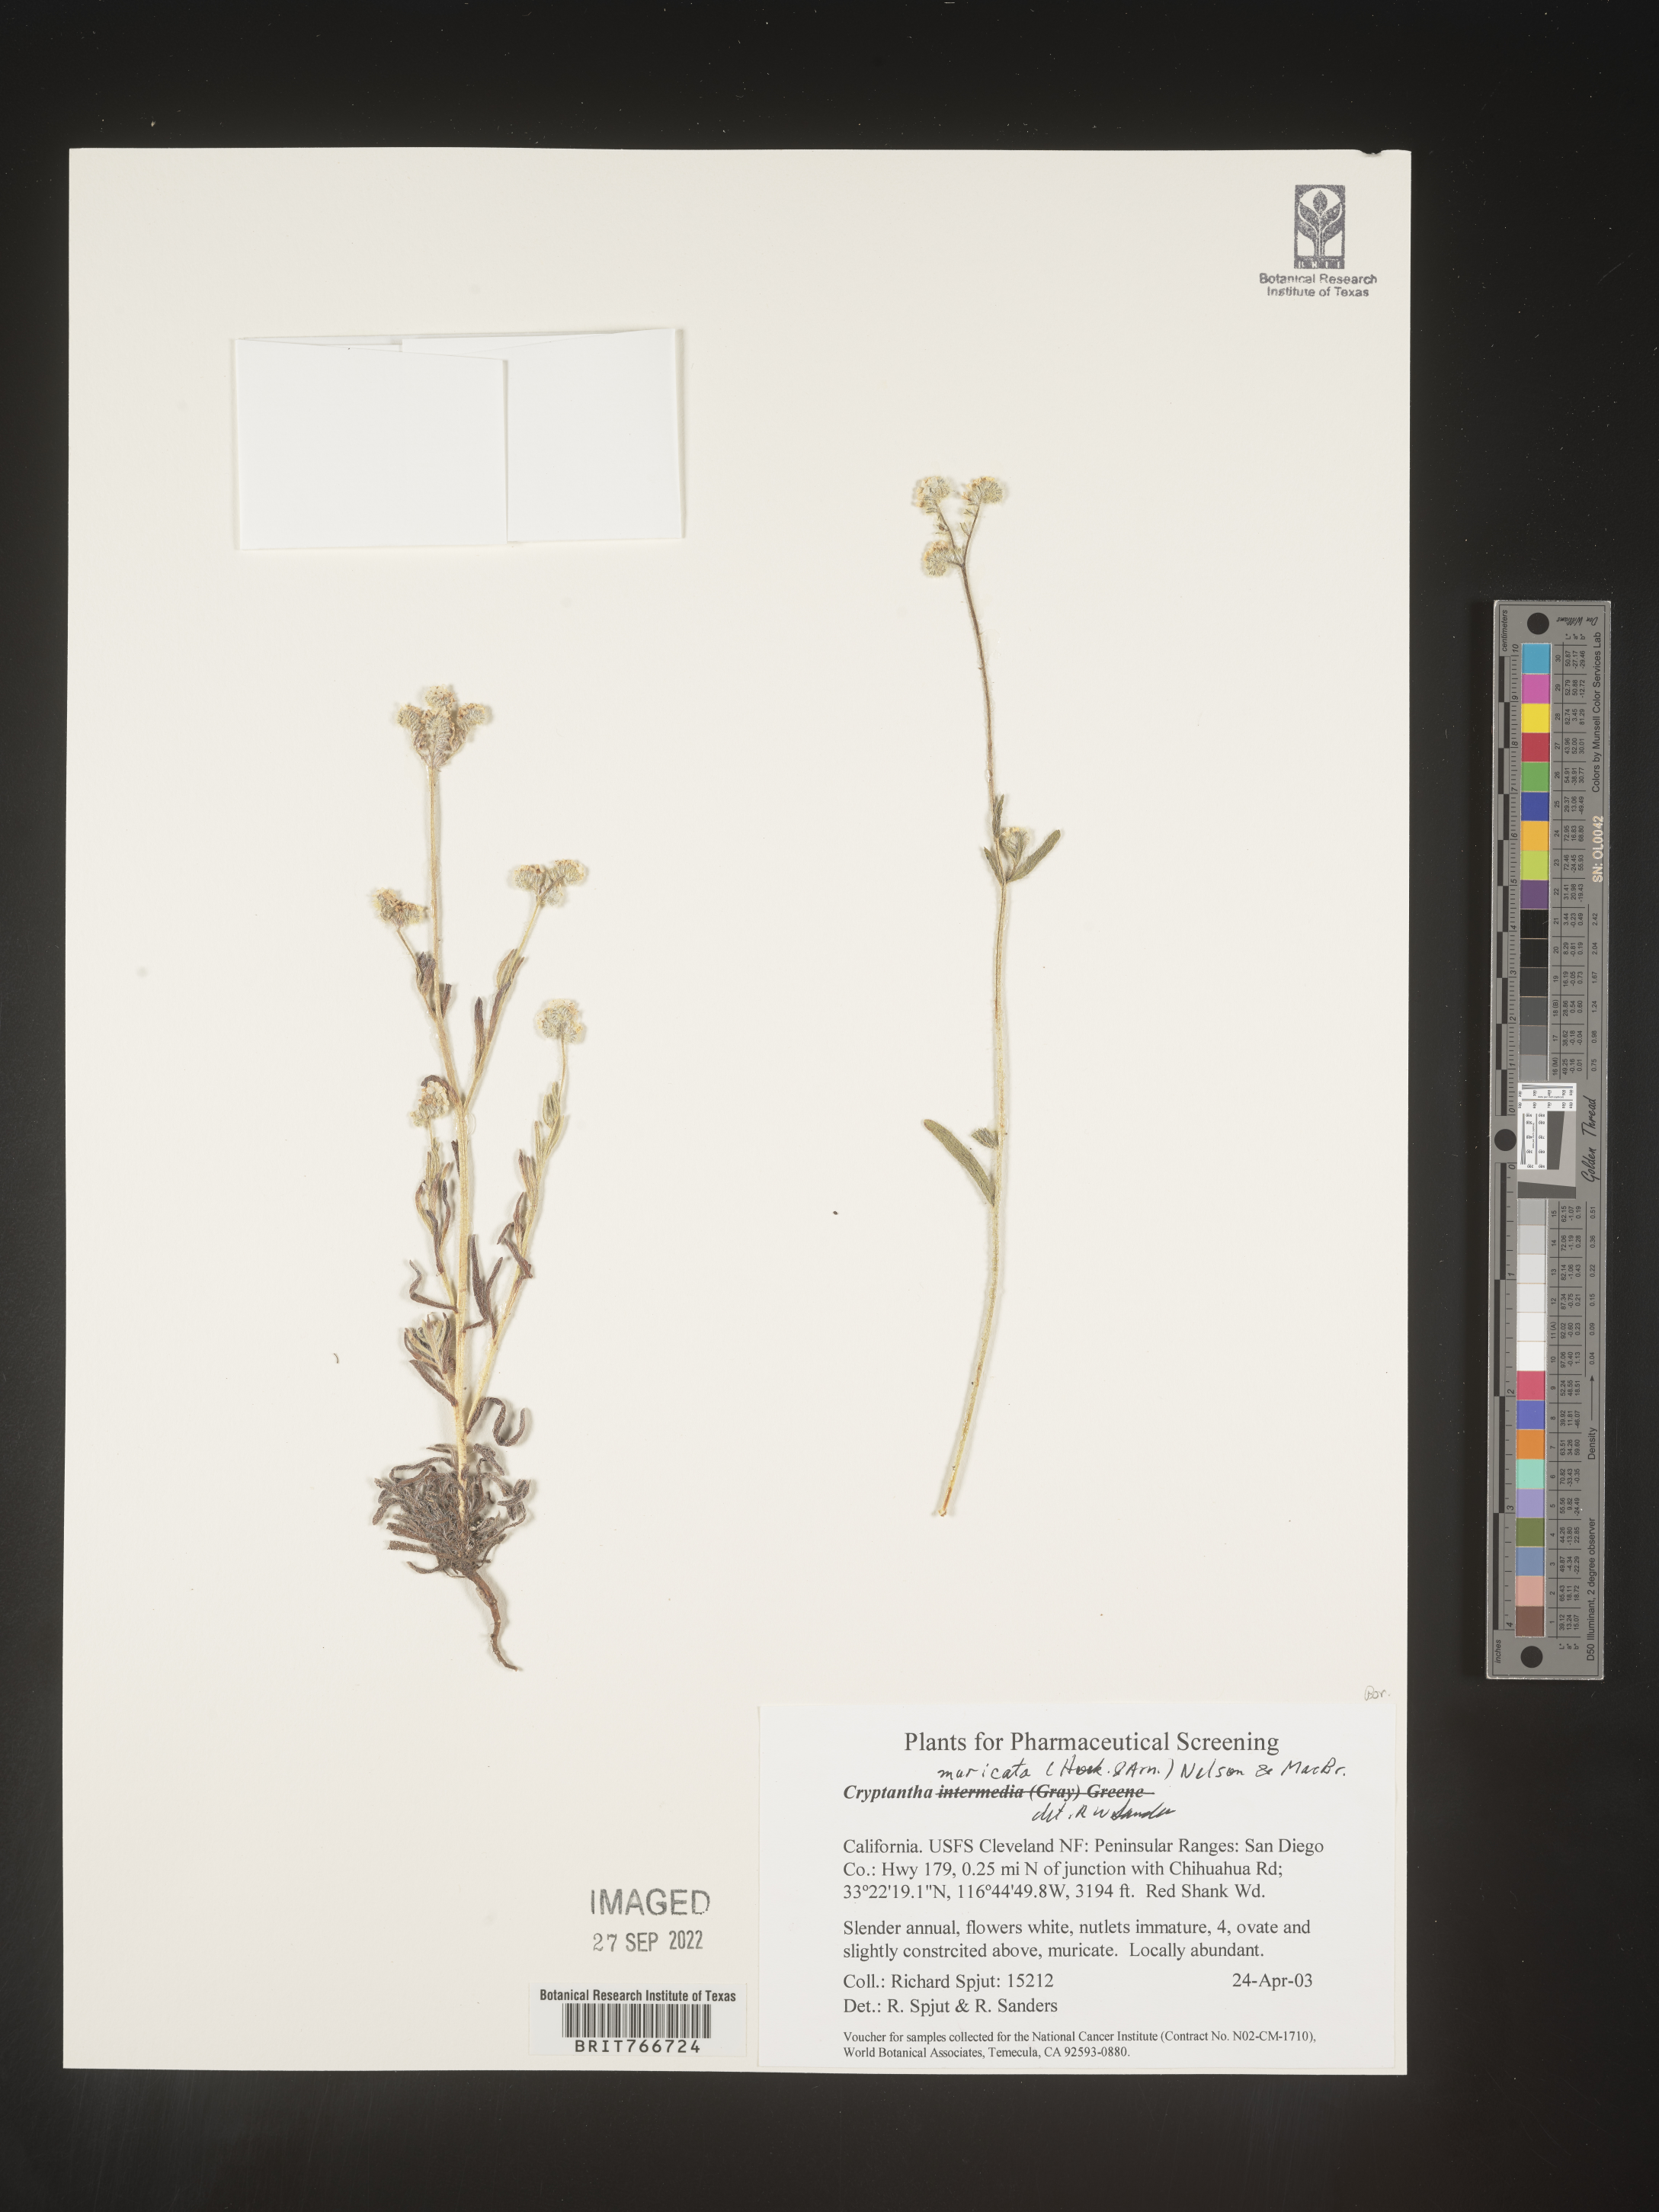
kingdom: Plantae
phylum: Tracheophyta
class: Magnoliopsida
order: Boraginales
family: Boraginaceae
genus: Cryptantha
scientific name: Cryptantha muricata
